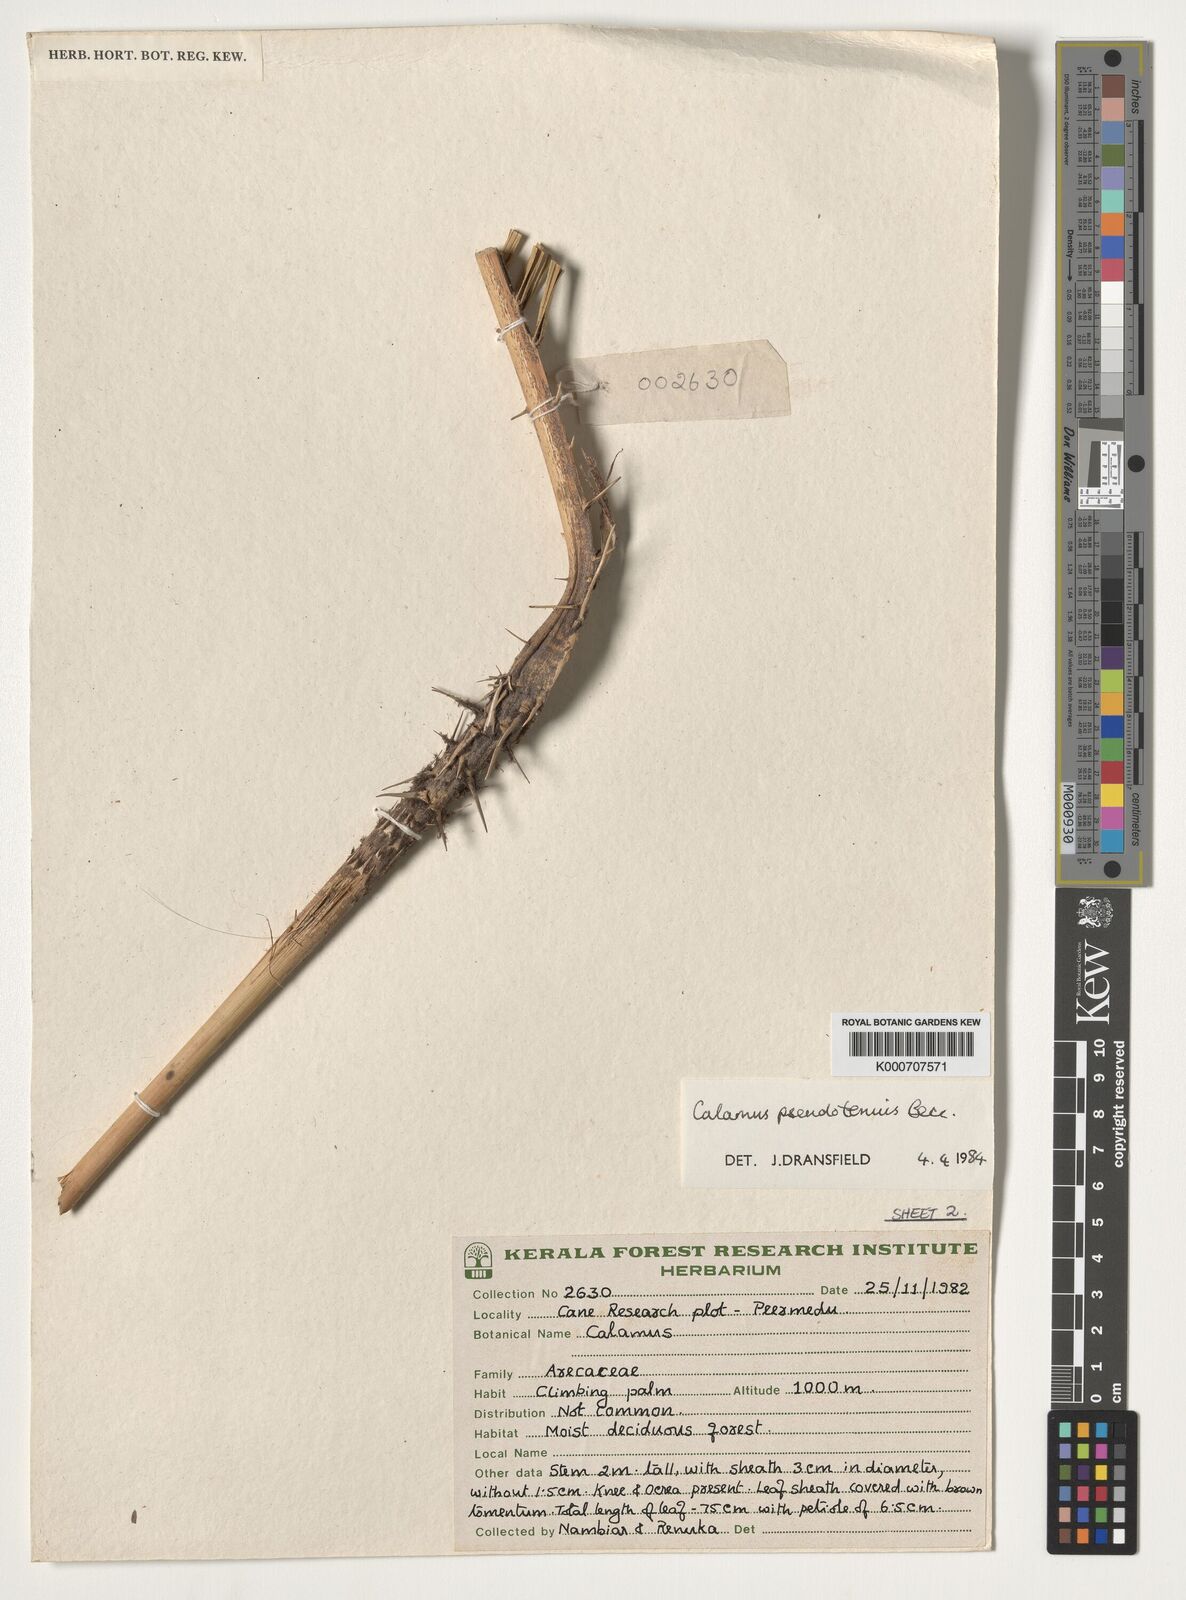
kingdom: Plantae
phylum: Tracheophyta
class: Liliopsida
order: Arecales
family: Arecaceae
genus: Calamus
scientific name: Calamus pseudotenuis
